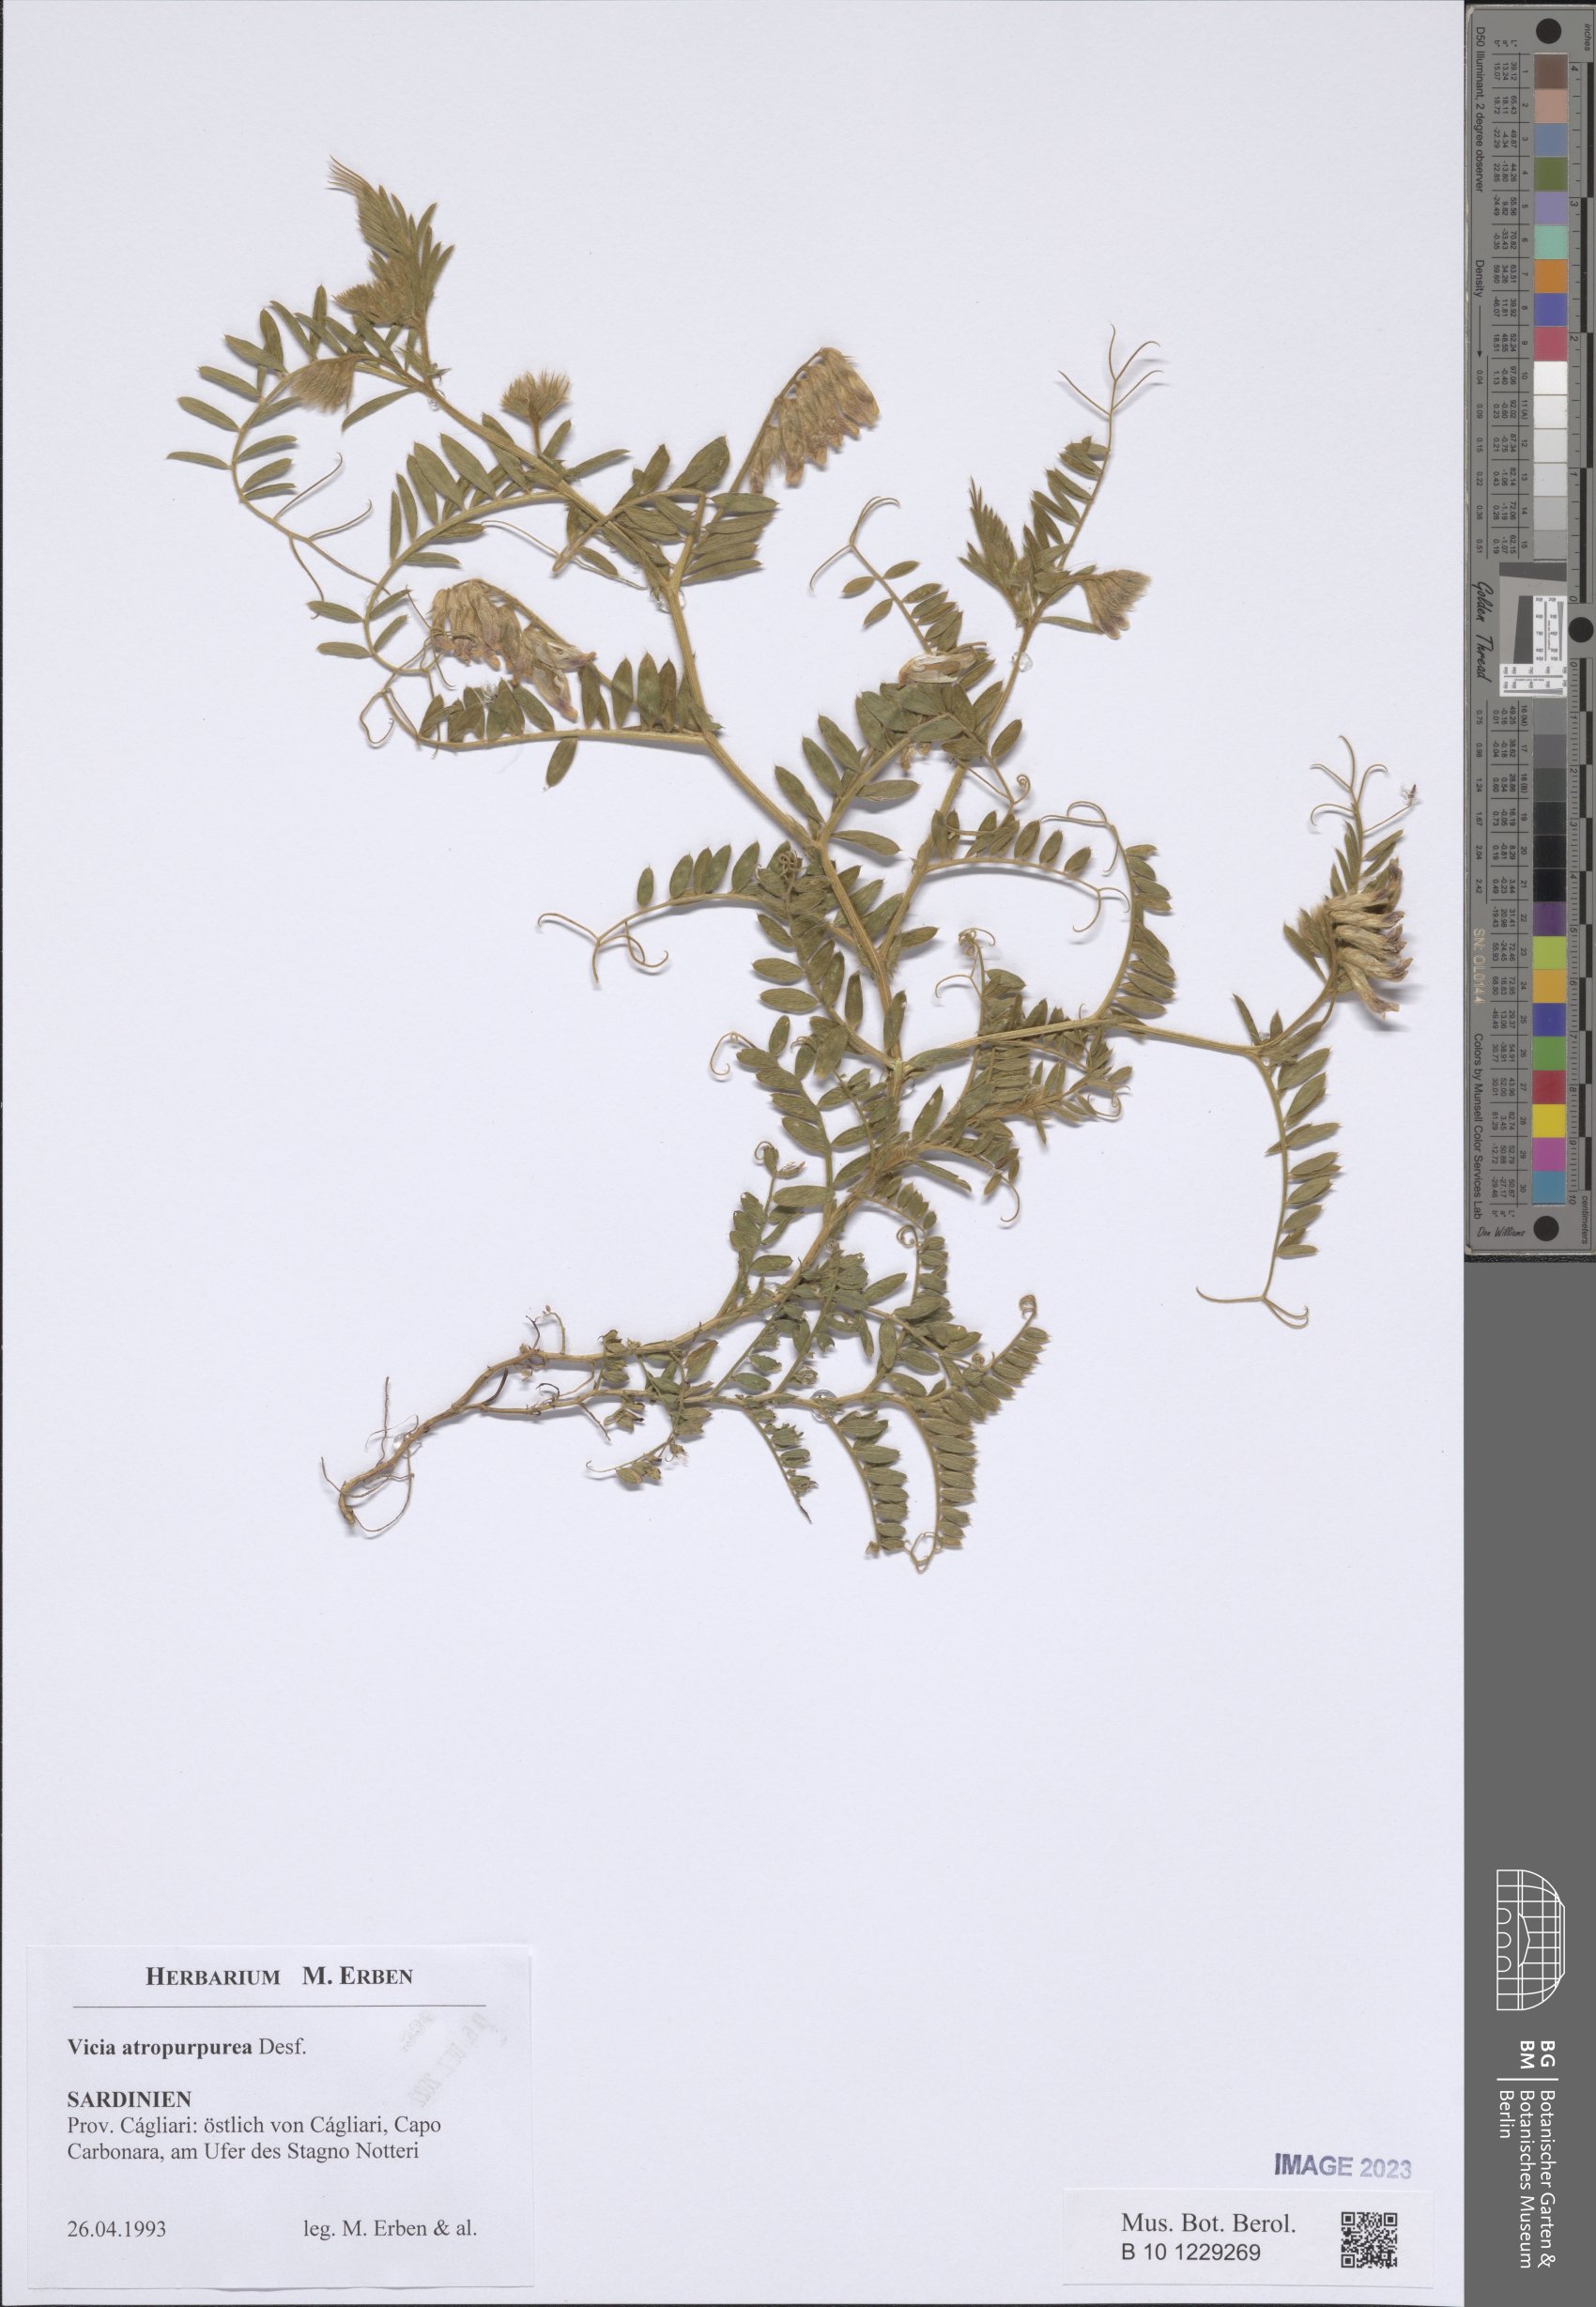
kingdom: Plantae
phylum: Tracheophyta
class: Magnoliopsida
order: Fabales
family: Fabaceae
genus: Vicia
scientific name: Vicia benghalensis
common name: Purple vetch
